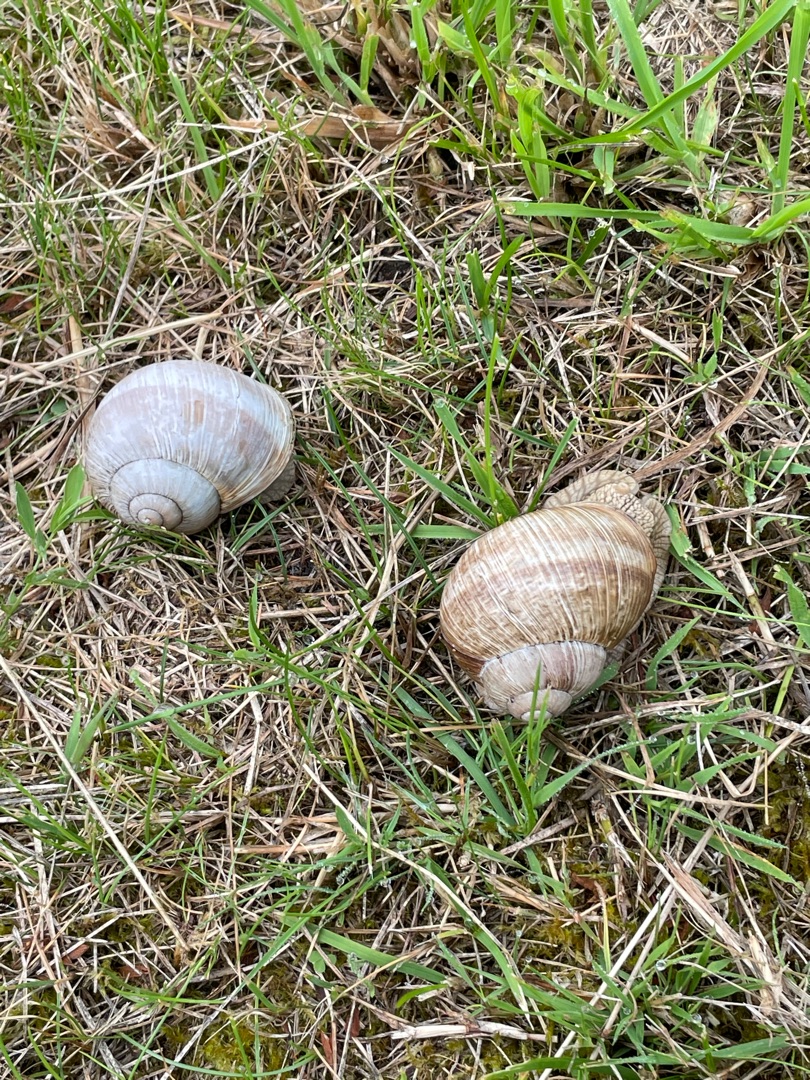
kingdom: Animalia
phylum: Mollusca
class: Gastropoda
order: Stylommatophora
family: Helicidae
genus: Helix
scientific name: Helix pomatia
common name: Vinbjergsnegl
